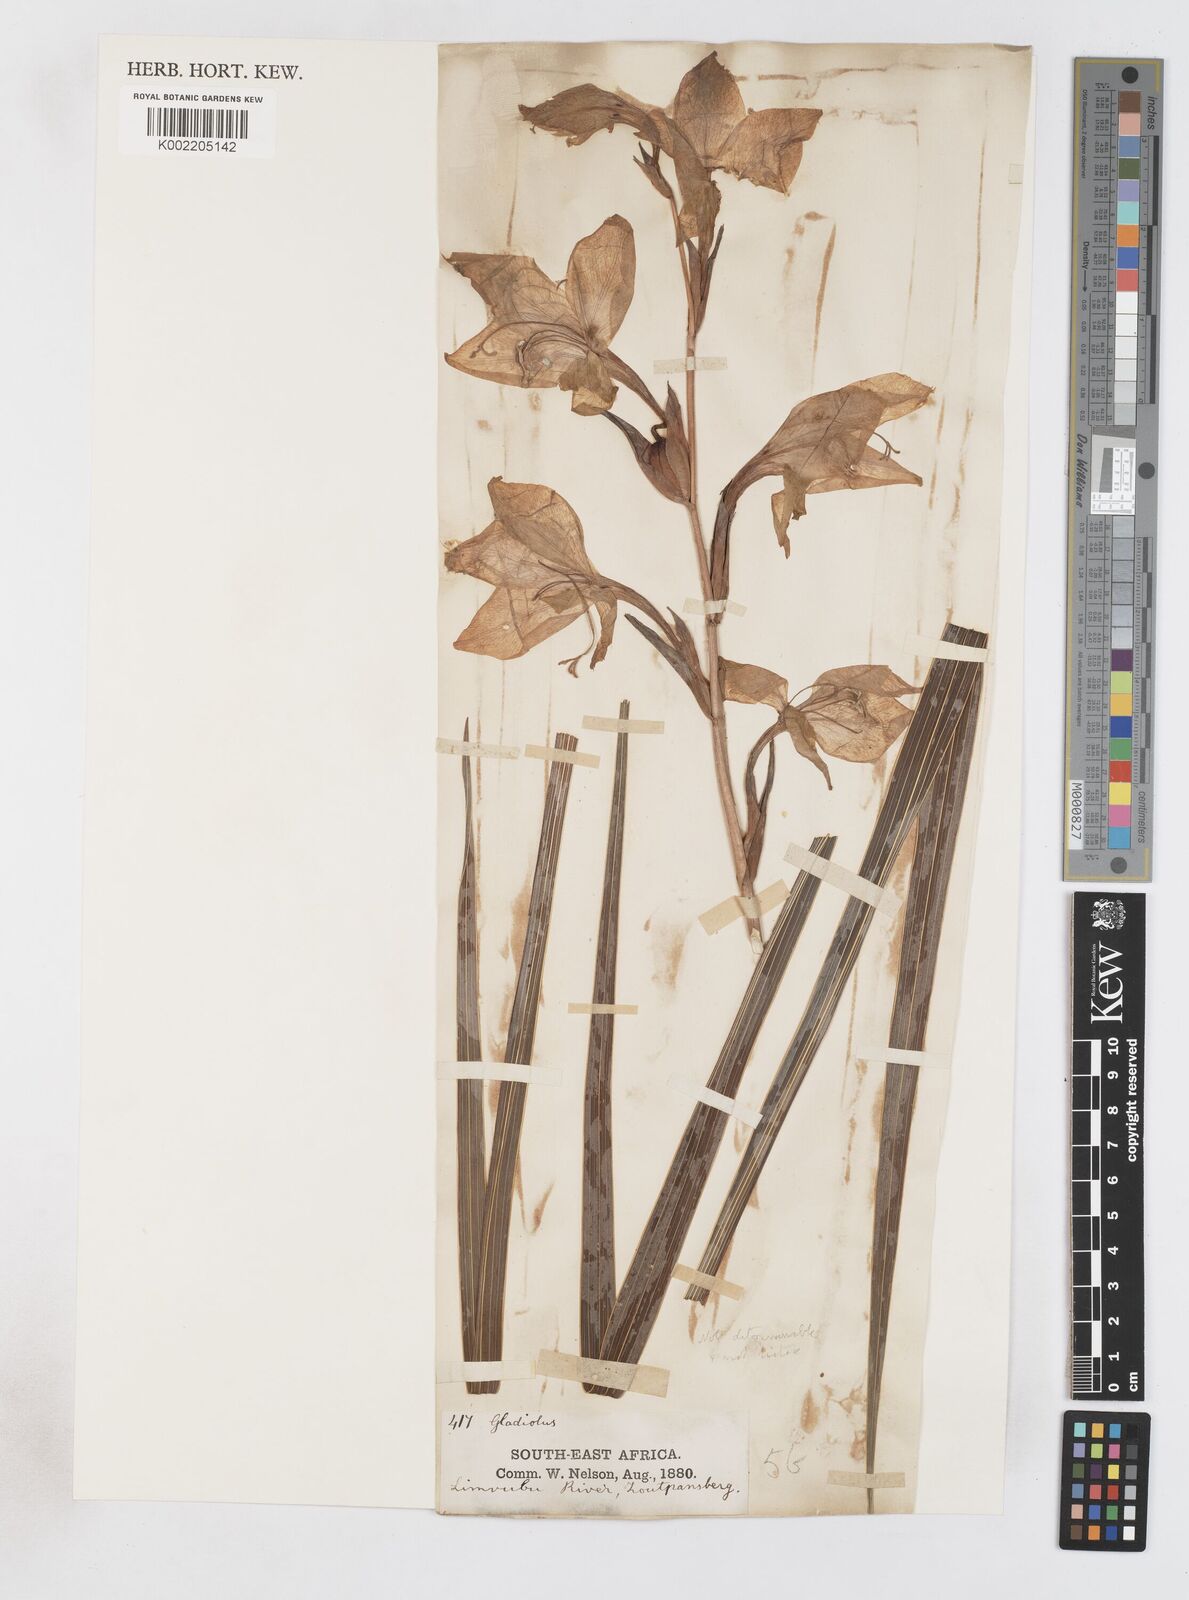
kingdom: Plantae
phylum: Tracheophyta
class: Liliopsida
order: Asparagales
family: Iridaceae
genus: Gladiolus
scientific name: Gladiolus dalenii
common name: Cornflag
